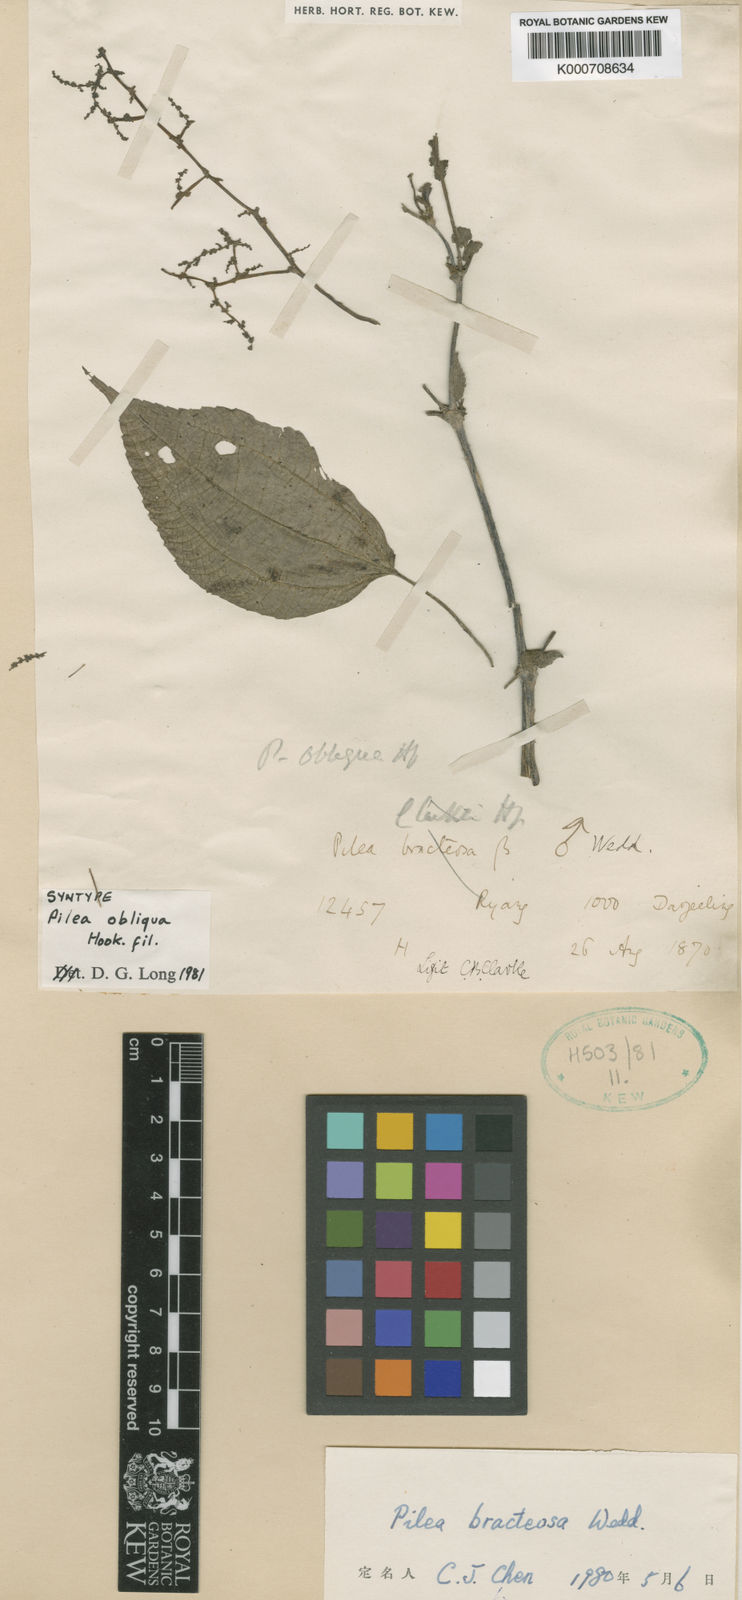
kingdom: Plantae
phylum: Tracheophyta
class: Magnoliopsida
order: Rosales
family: Urticaceae
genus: Pilea
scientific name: Pilea bracteosa
